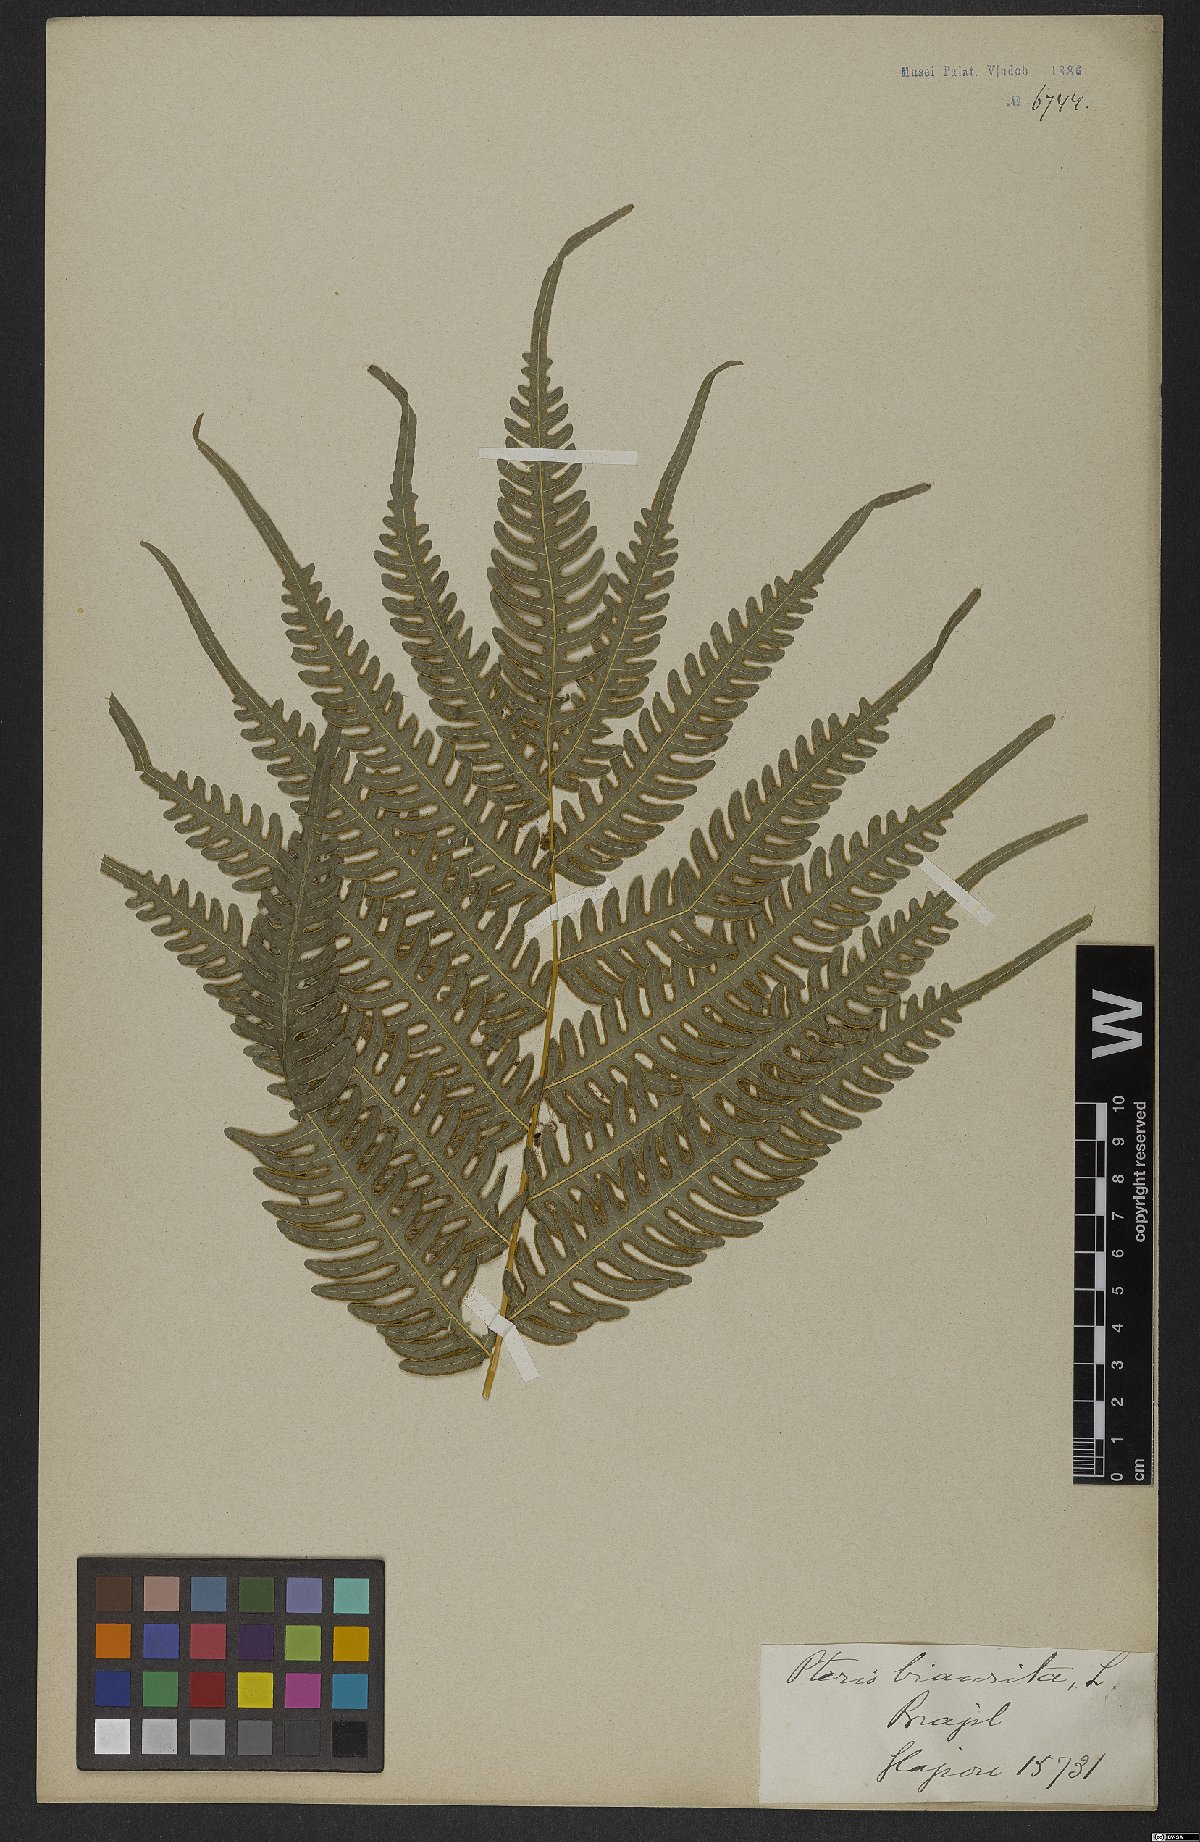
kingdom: Plantae
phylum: Tracheophyta
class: Polypodiopsida
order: Polypodiales
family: Pteridaceae
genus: Pteris
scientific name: Pteris biaurita
